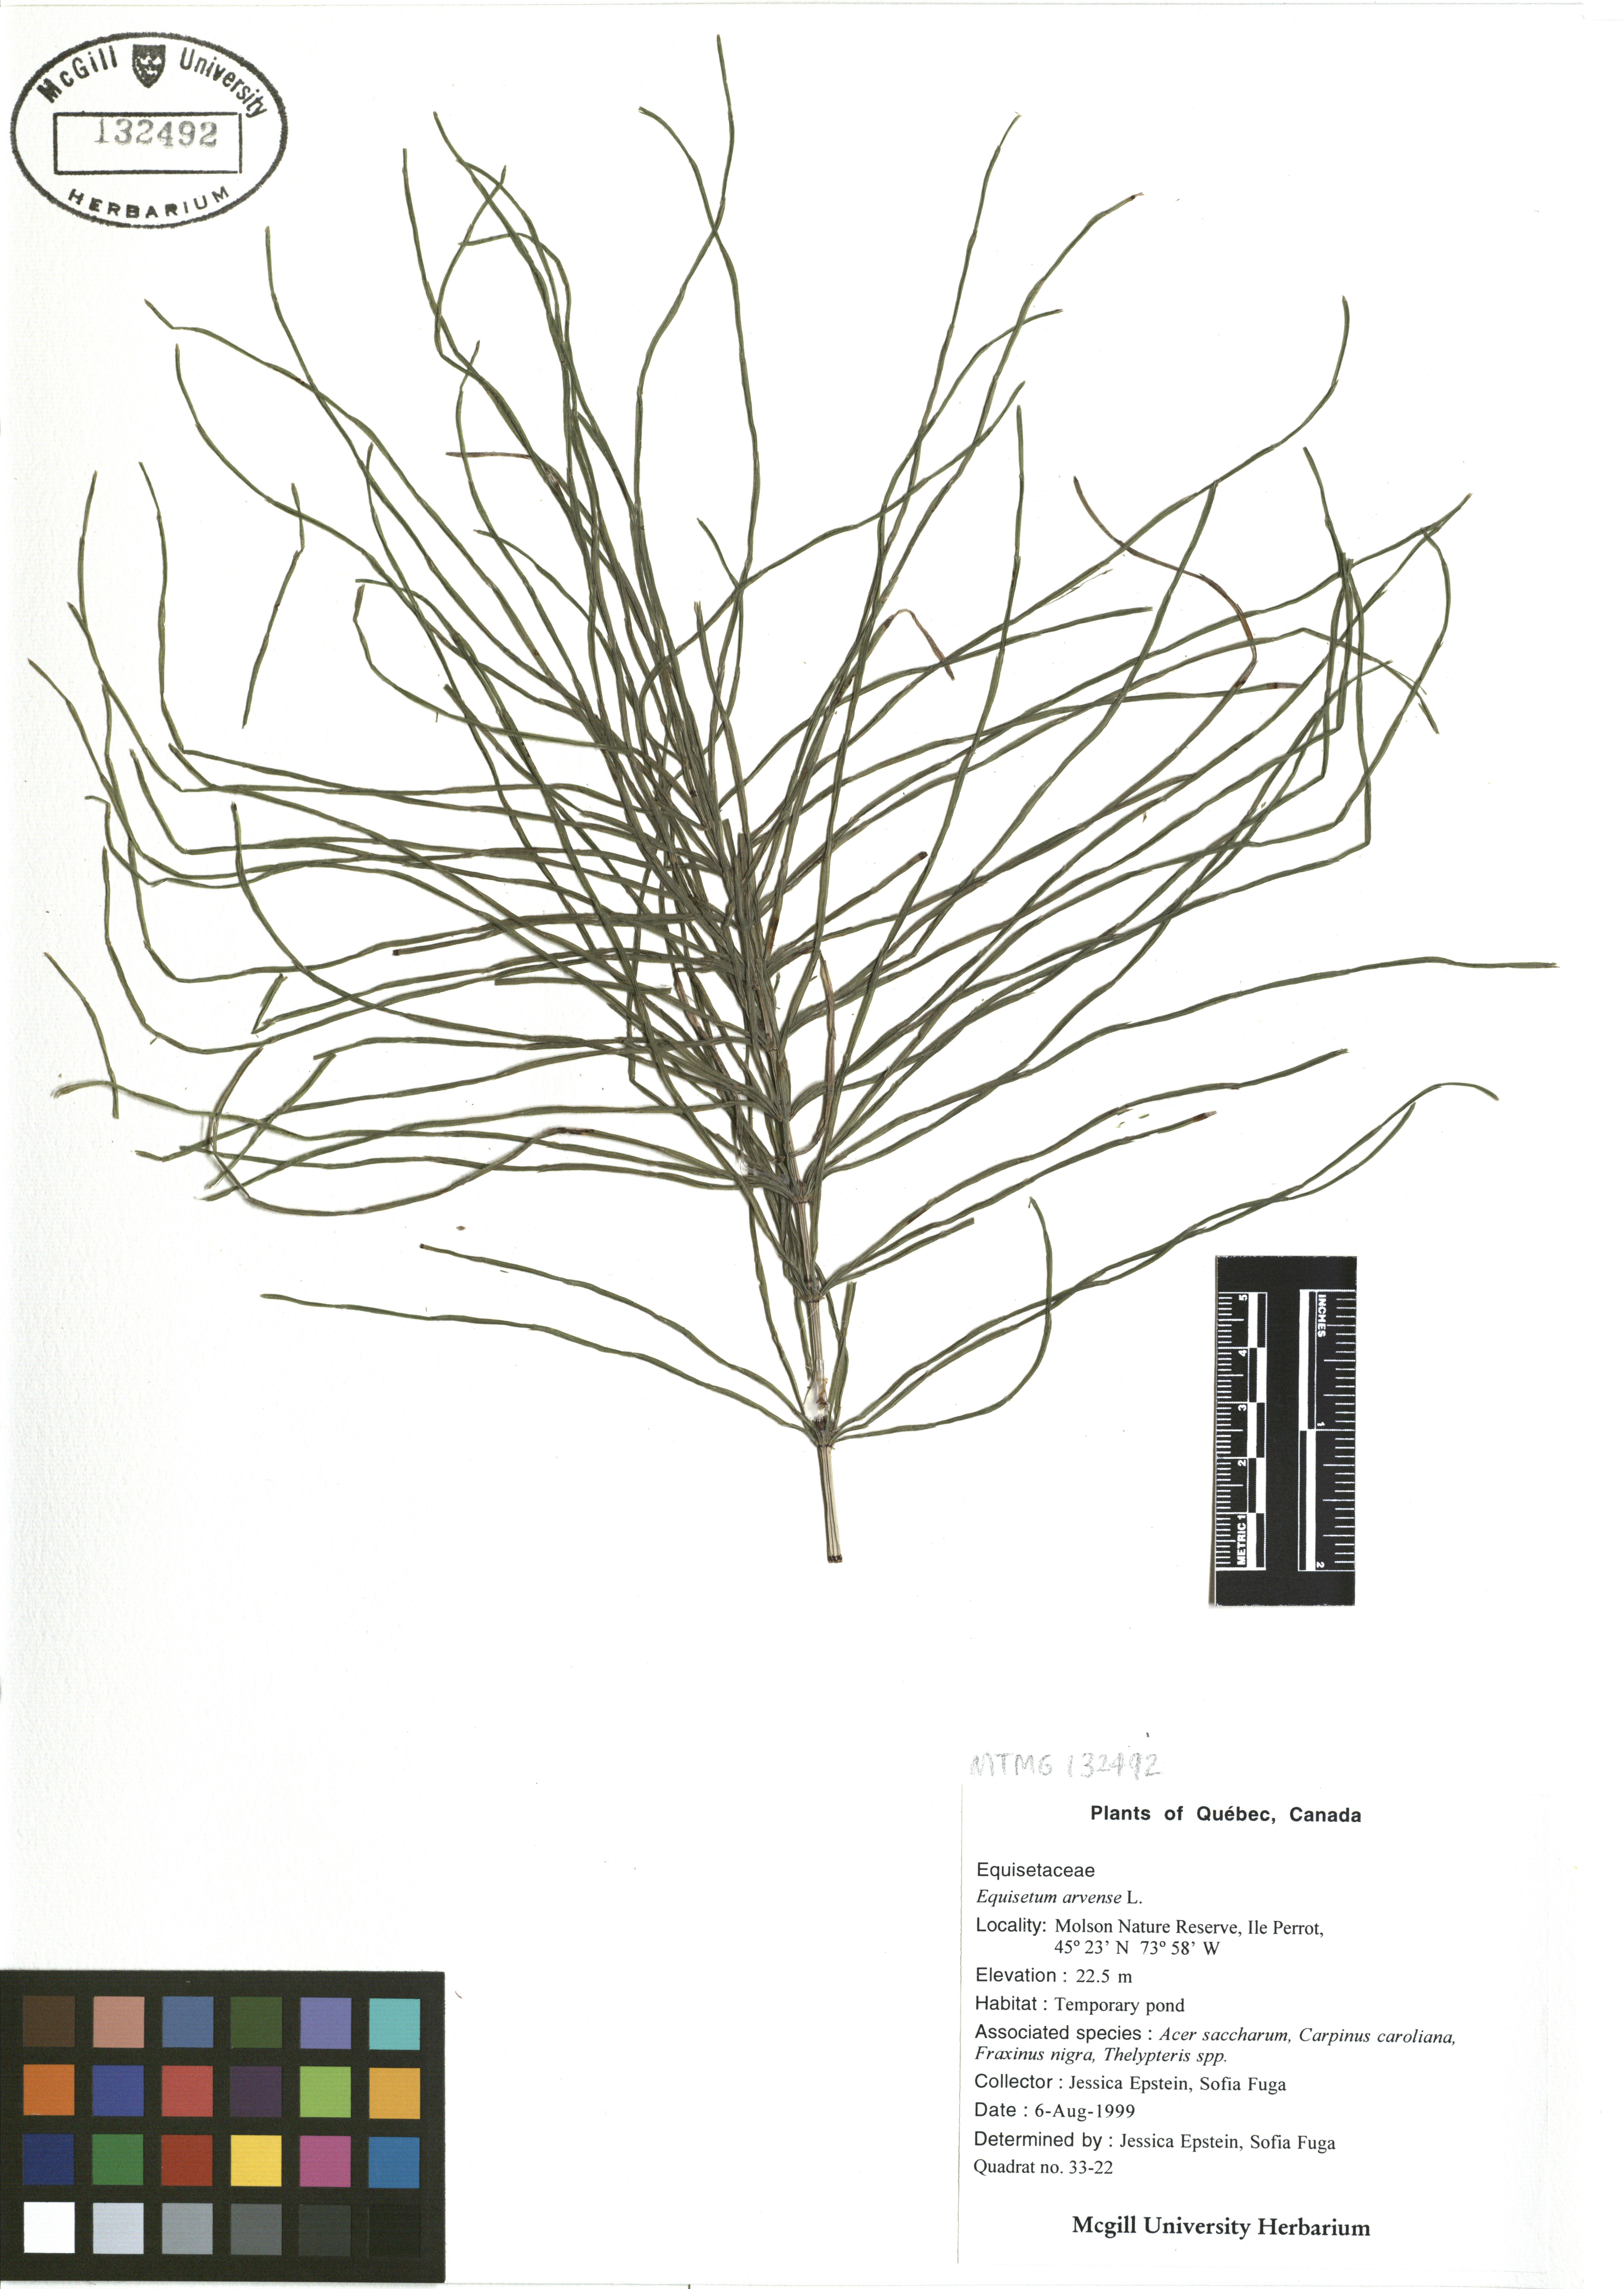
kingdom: Plantae
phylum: Tracheophyta
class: Polypodiopsida
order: Equisetales
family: Equisetaceae
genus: Equisetum
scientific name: Equisetum arvense
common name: Field horsetail
